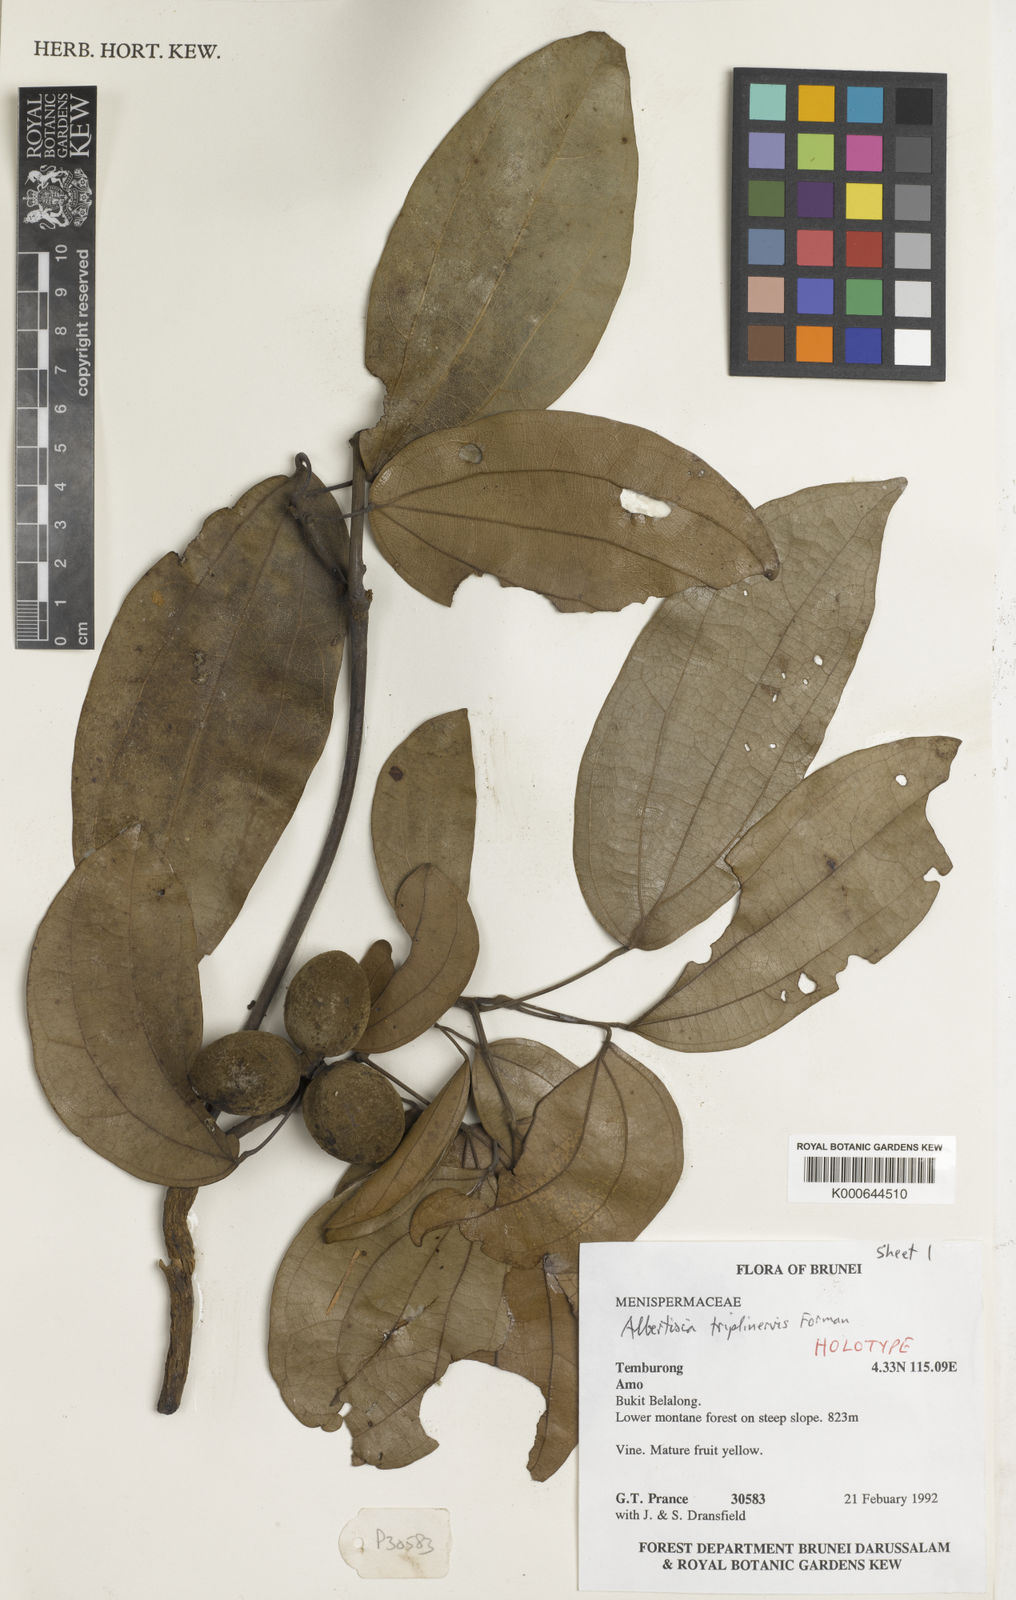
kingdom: Plantae
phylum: Tracheophyta
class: Magnoliopsida
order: Ranunculales
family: Menispermaceae
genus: Albertisia
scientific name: Albertisia triplinervis
